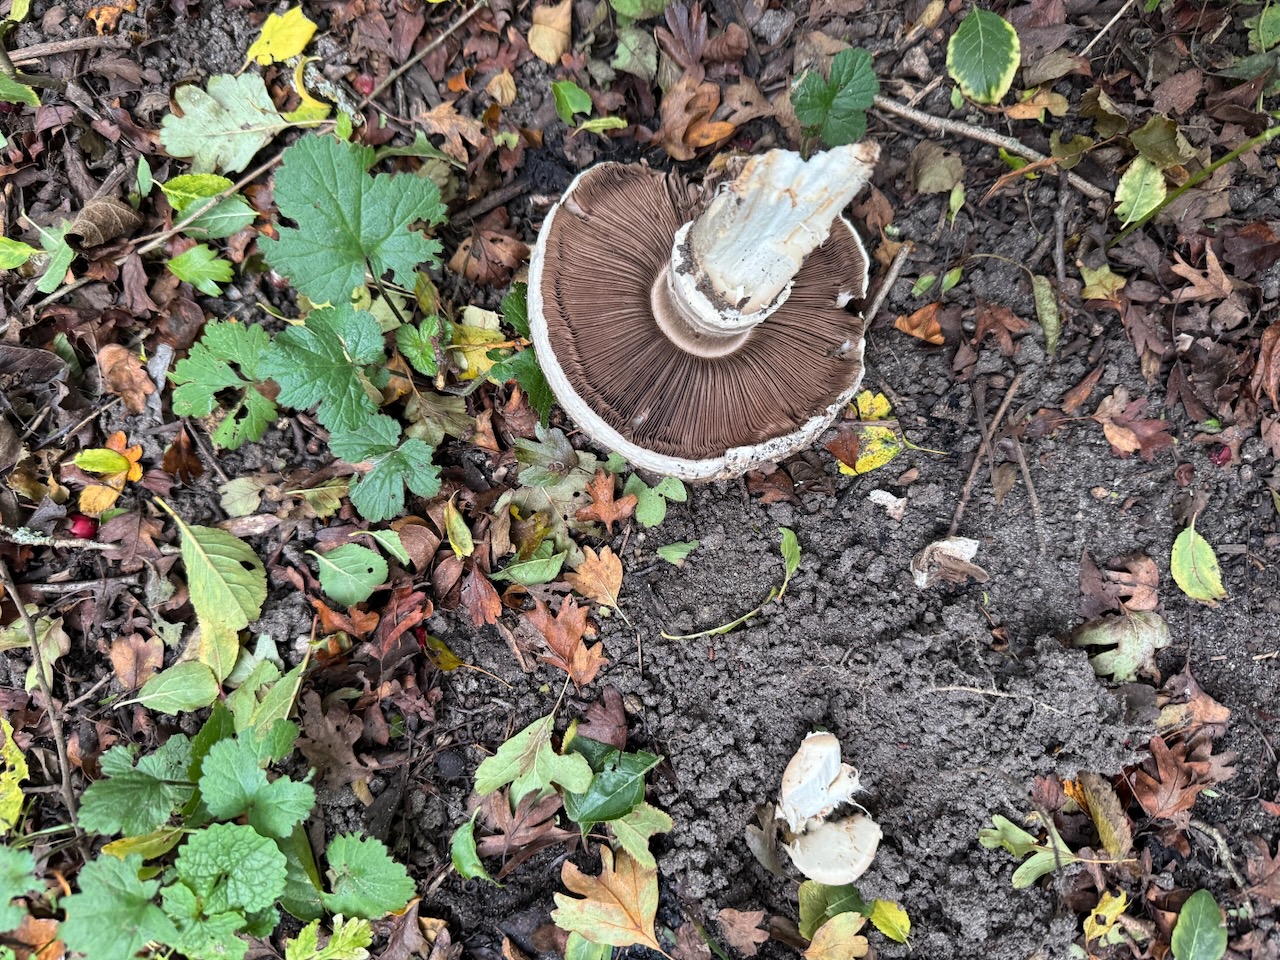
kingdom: Fungi
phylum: Basidiomycota
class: Agaricomycetes
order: Agaricales
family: Agaricaceae
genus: Agaricus
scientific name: Agaricus
